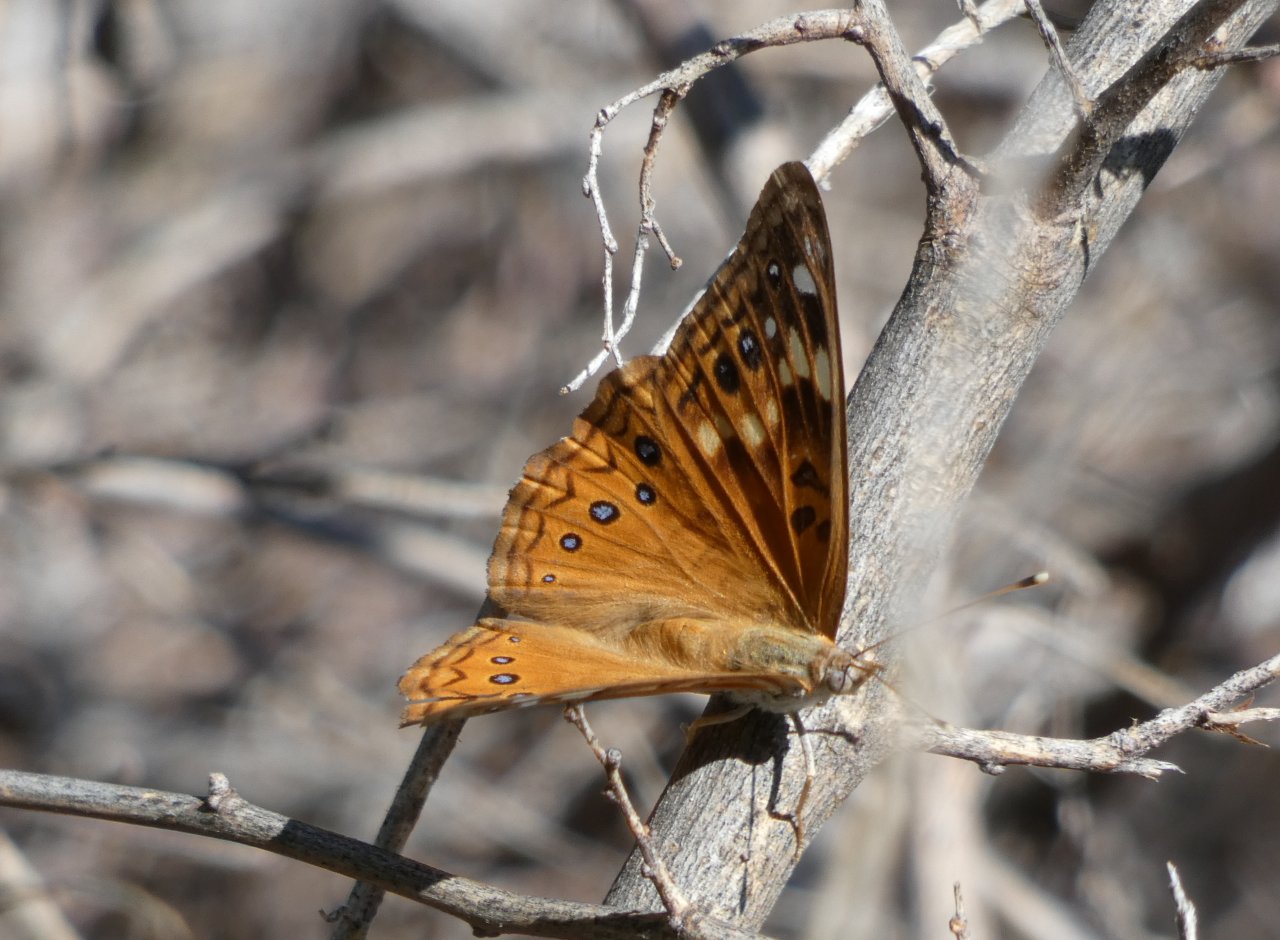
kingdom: Animalia
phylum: Arthropoda
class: Insecta
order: Lepidoptera
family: Nymphalidae
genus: Asterocampa
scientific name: Asterocampa celtis
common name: Hackberry Emperor
